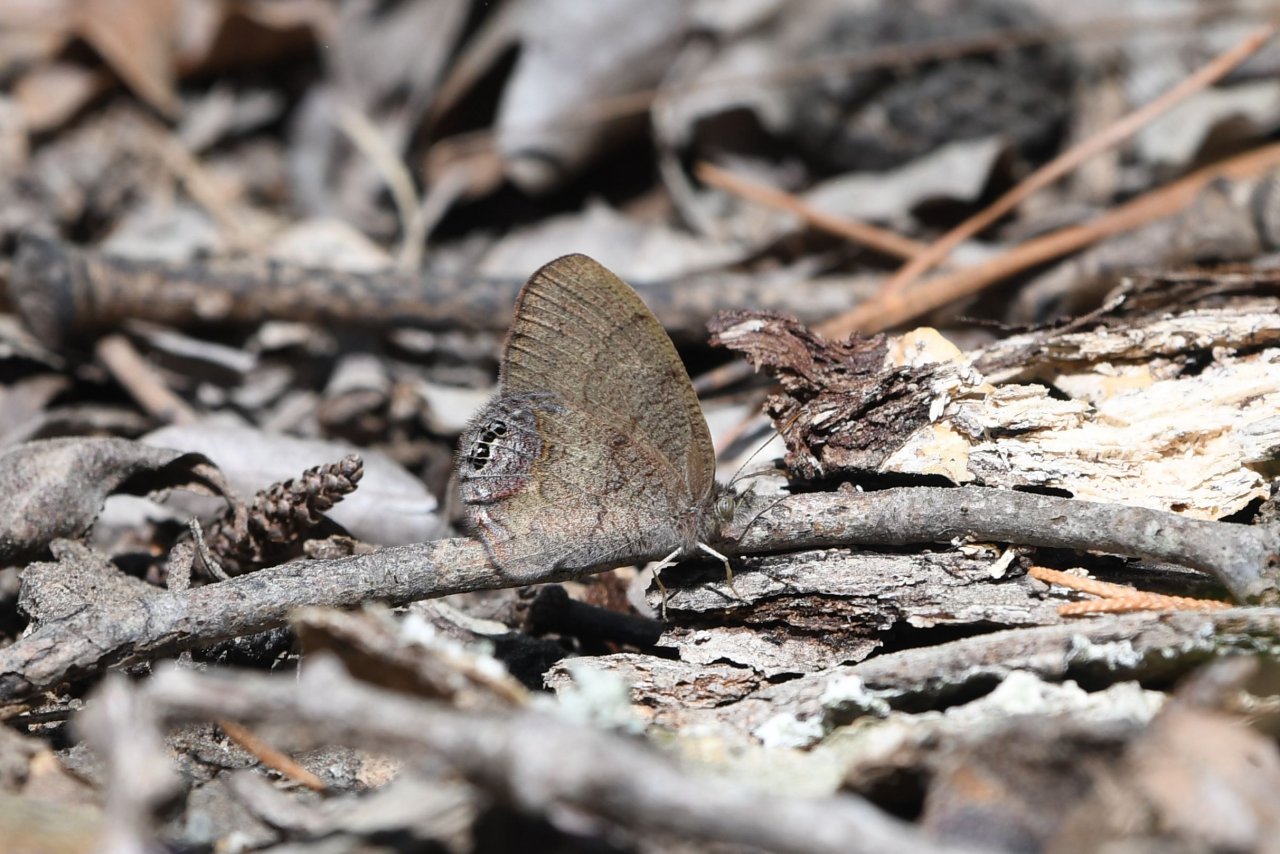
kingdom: Animalia
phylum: Arthropoda
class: Insecta
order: Lepidoptera
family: Nymphalidae
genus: Euptychia
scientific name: Euptychia cornelius
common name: Gemmed Satyr
